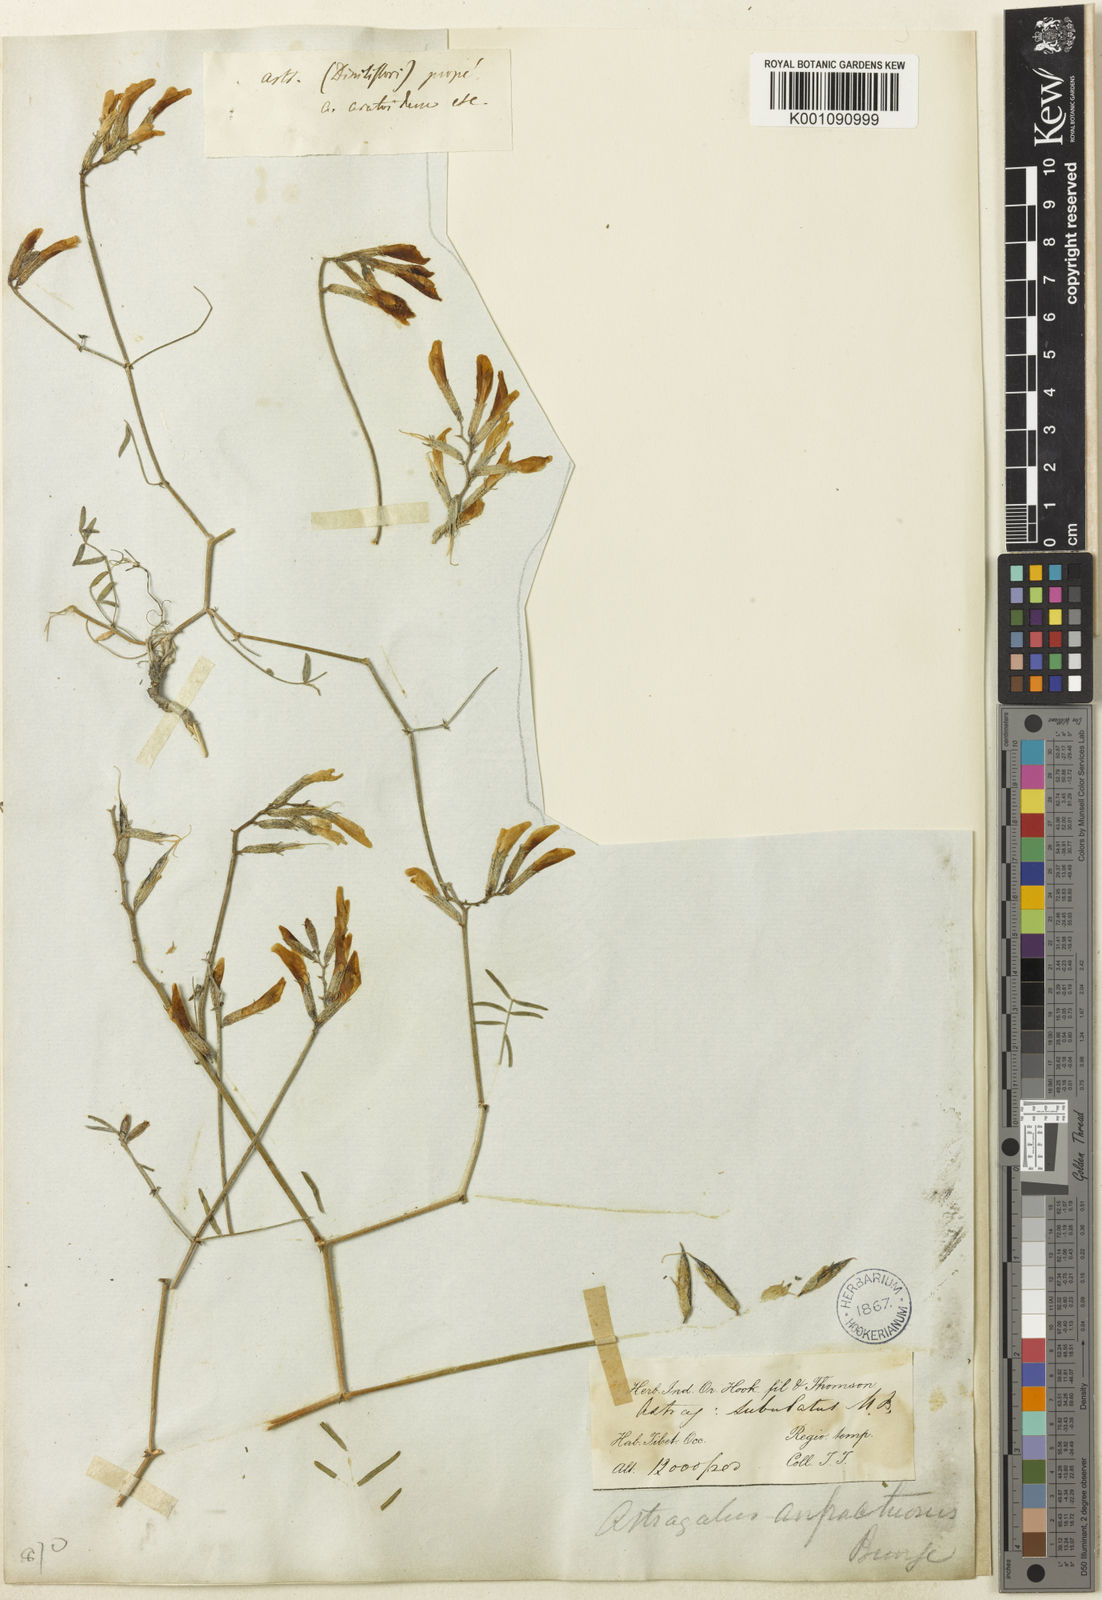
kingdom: Plantae
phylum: Tracheophyta
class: Magnoliopsida
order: Fabales
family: Fabaceae
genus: Astragalus
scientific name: Astragalus
